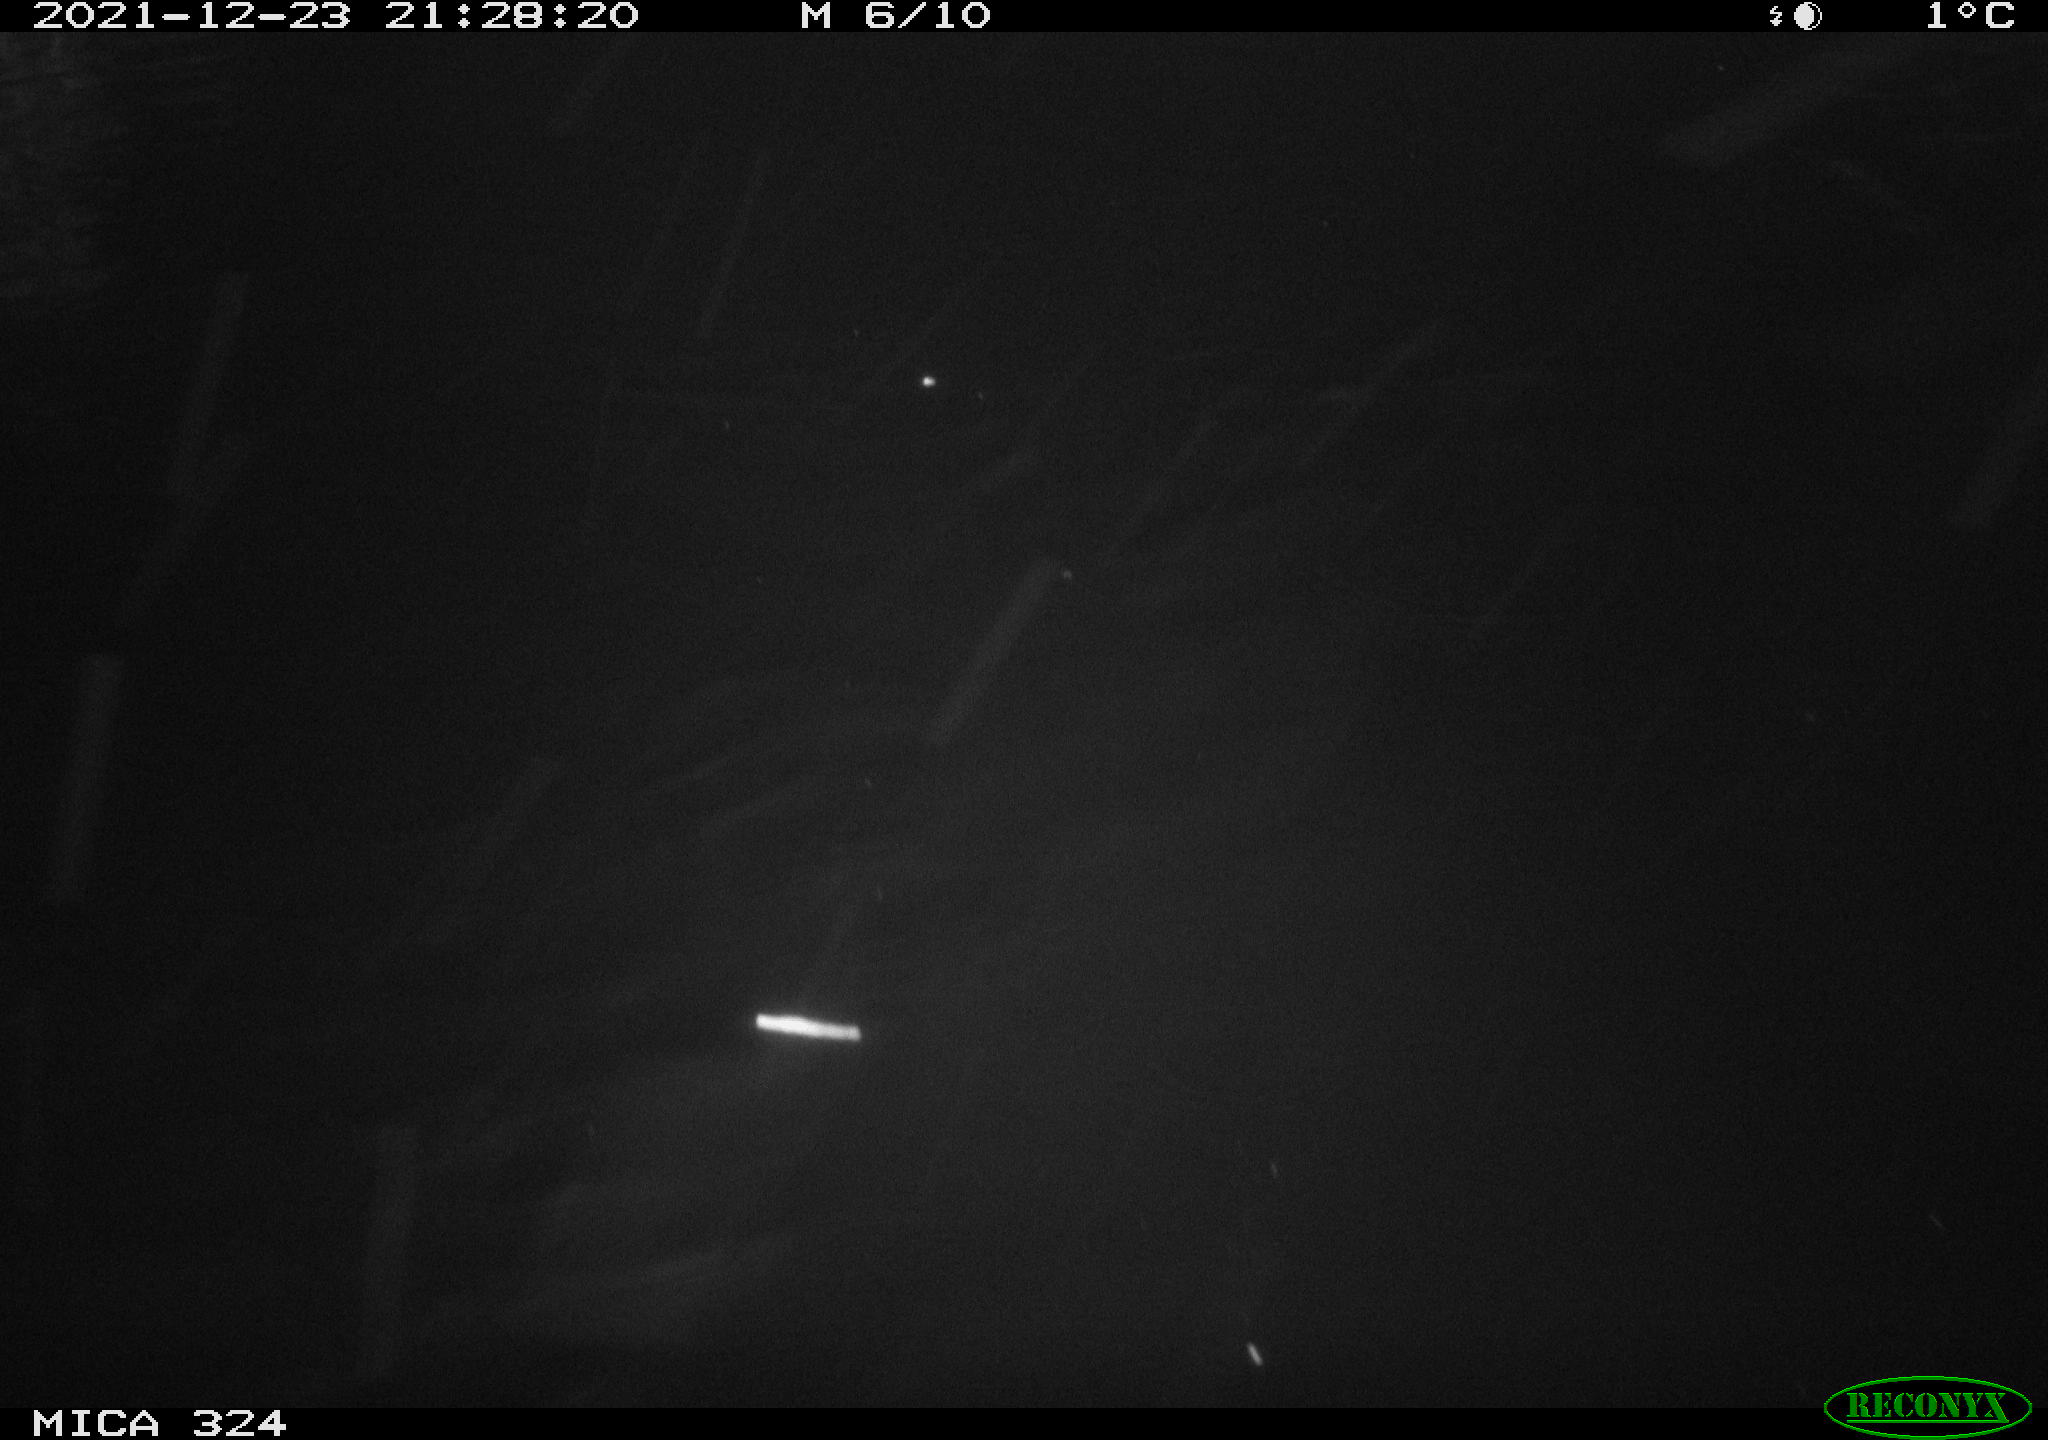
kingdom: Animalia
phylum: Chordata
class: Mammalia
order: Rodentia
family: Cricetidae
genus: Ondatra
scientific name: Ondatra zibethicus
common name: Muskrat
